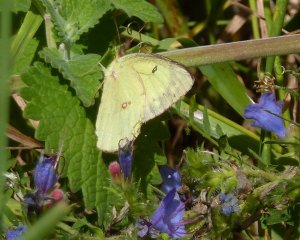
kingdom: Animalia
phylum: Arthropoda
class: Insecta
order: Lepidoptera
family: Pieridae
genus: Colias
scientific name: Colias philodice
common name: Clouded Sulphur
